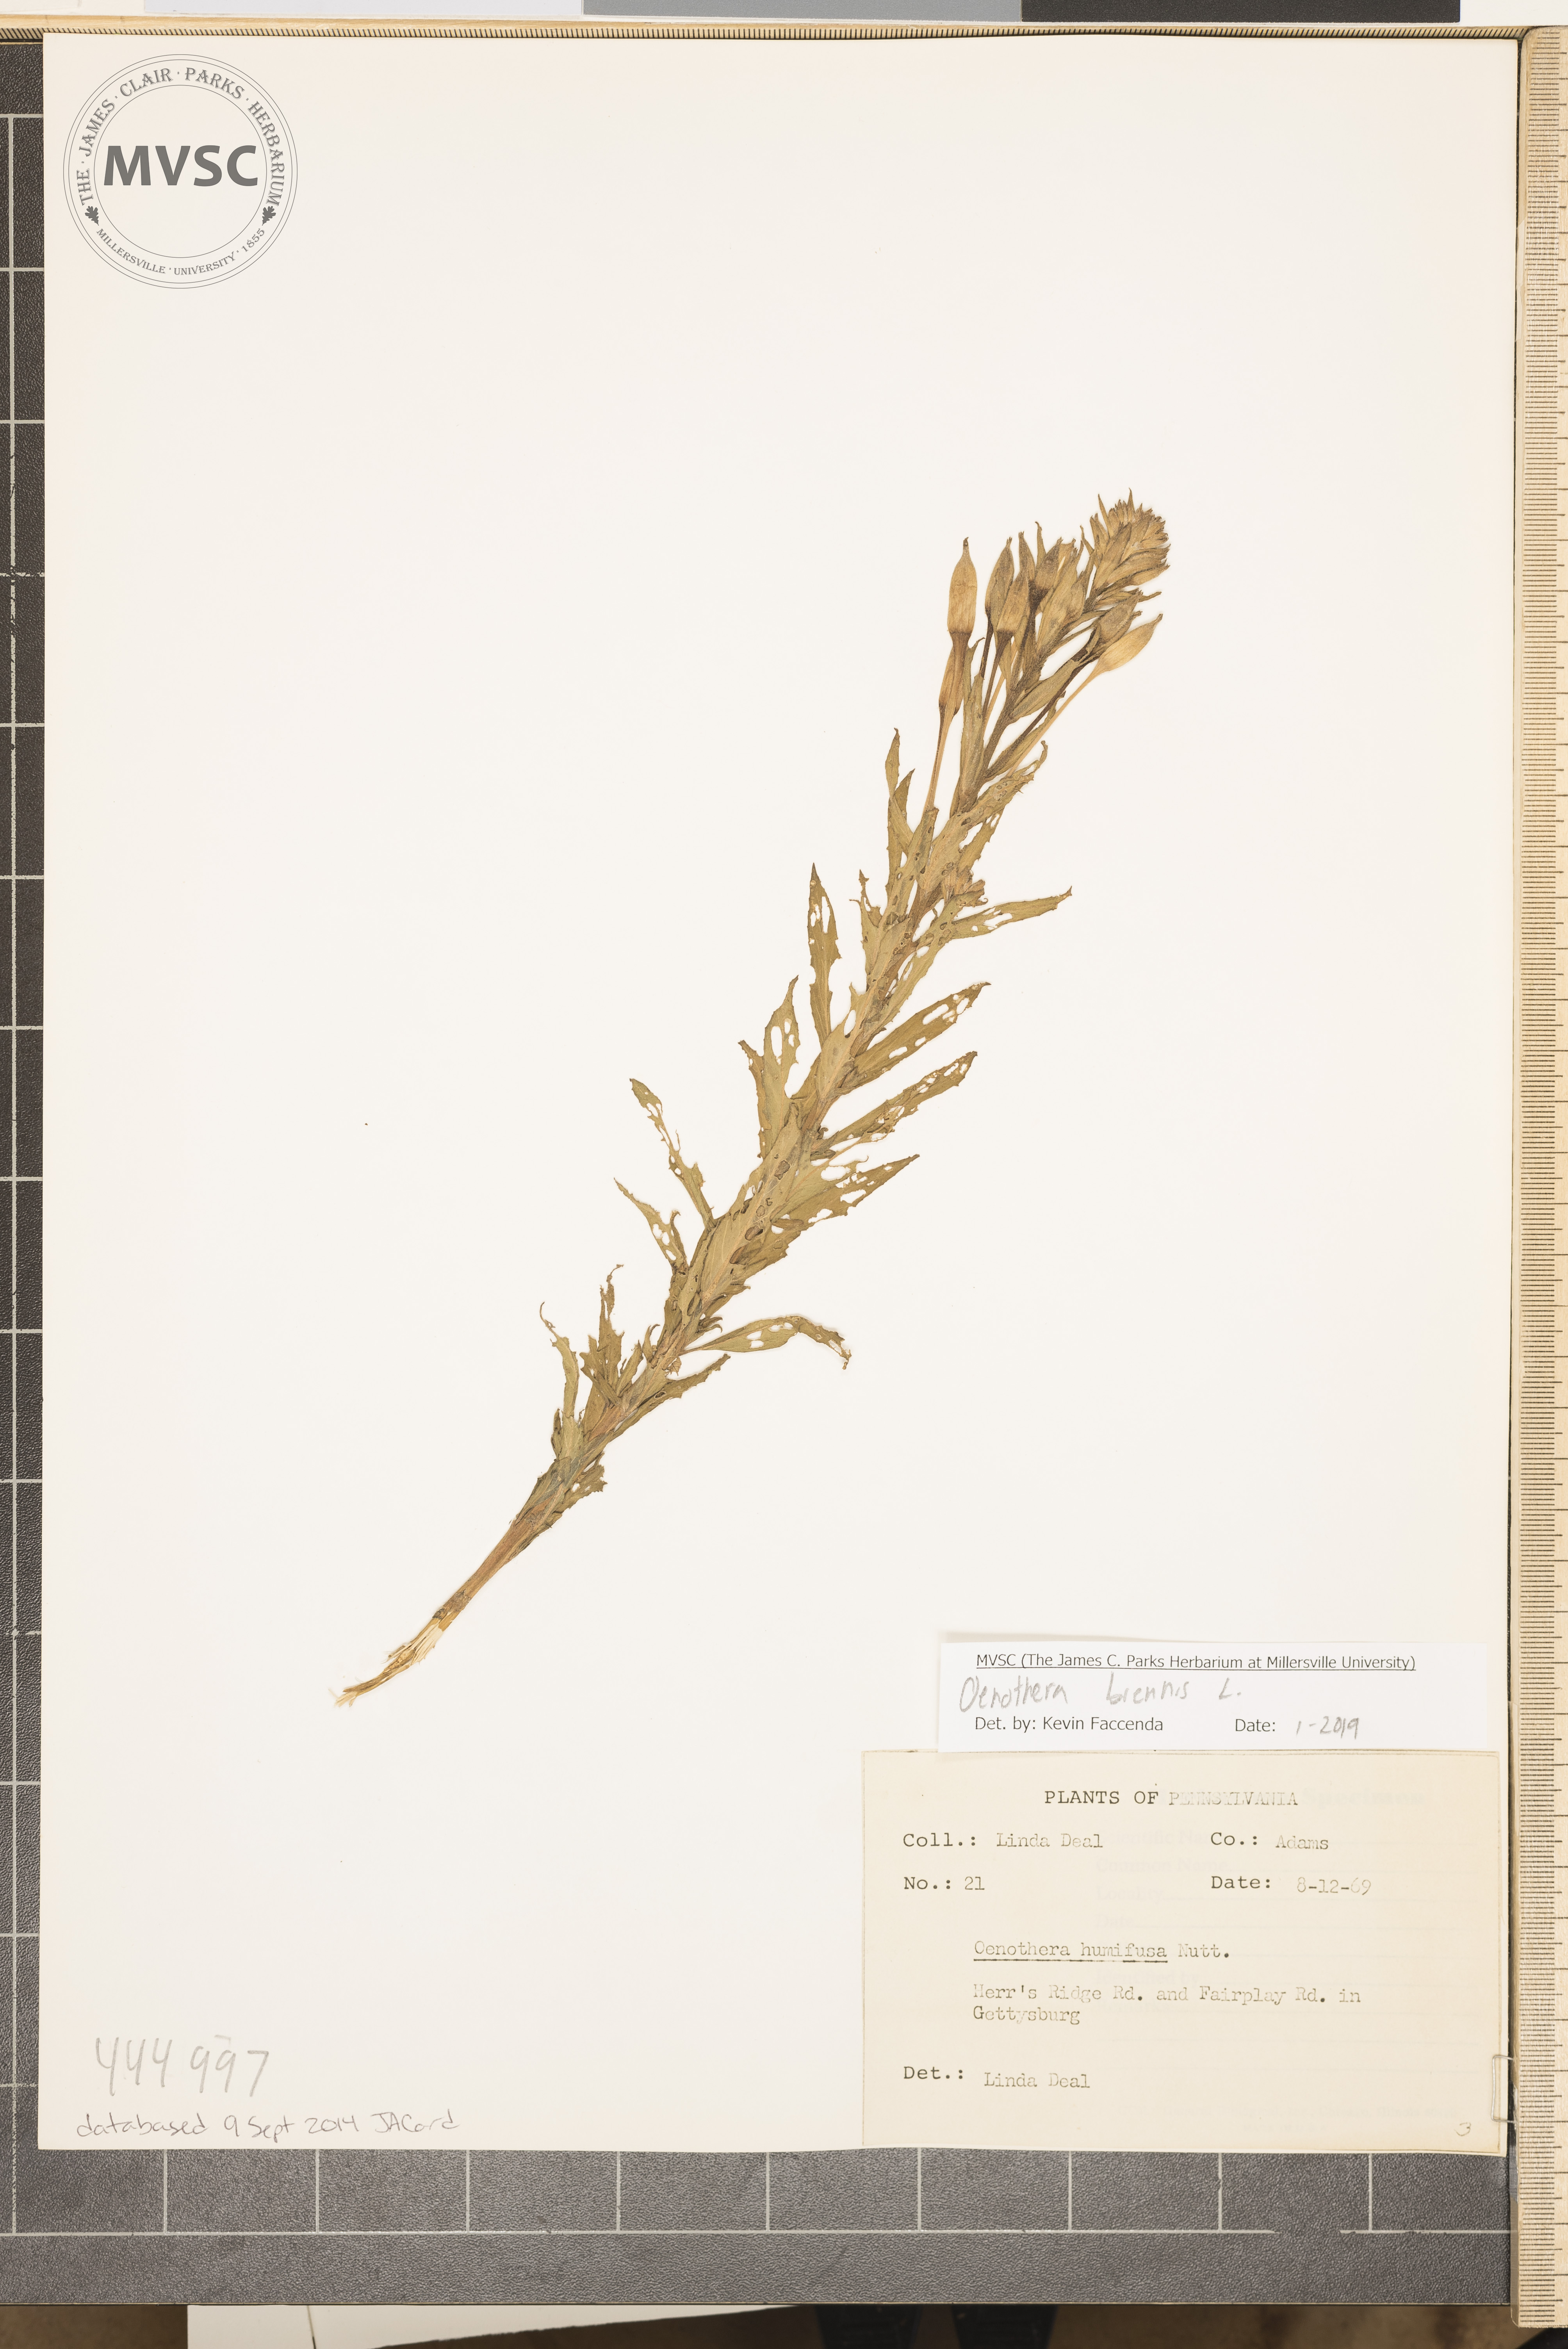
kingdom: Plantae
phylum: Tracheophyta
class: Magnoliopsida
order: Myrtales
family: Onagraceae
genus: Oenothera
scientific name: Oenothera biennis
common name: Common evening-primrose
